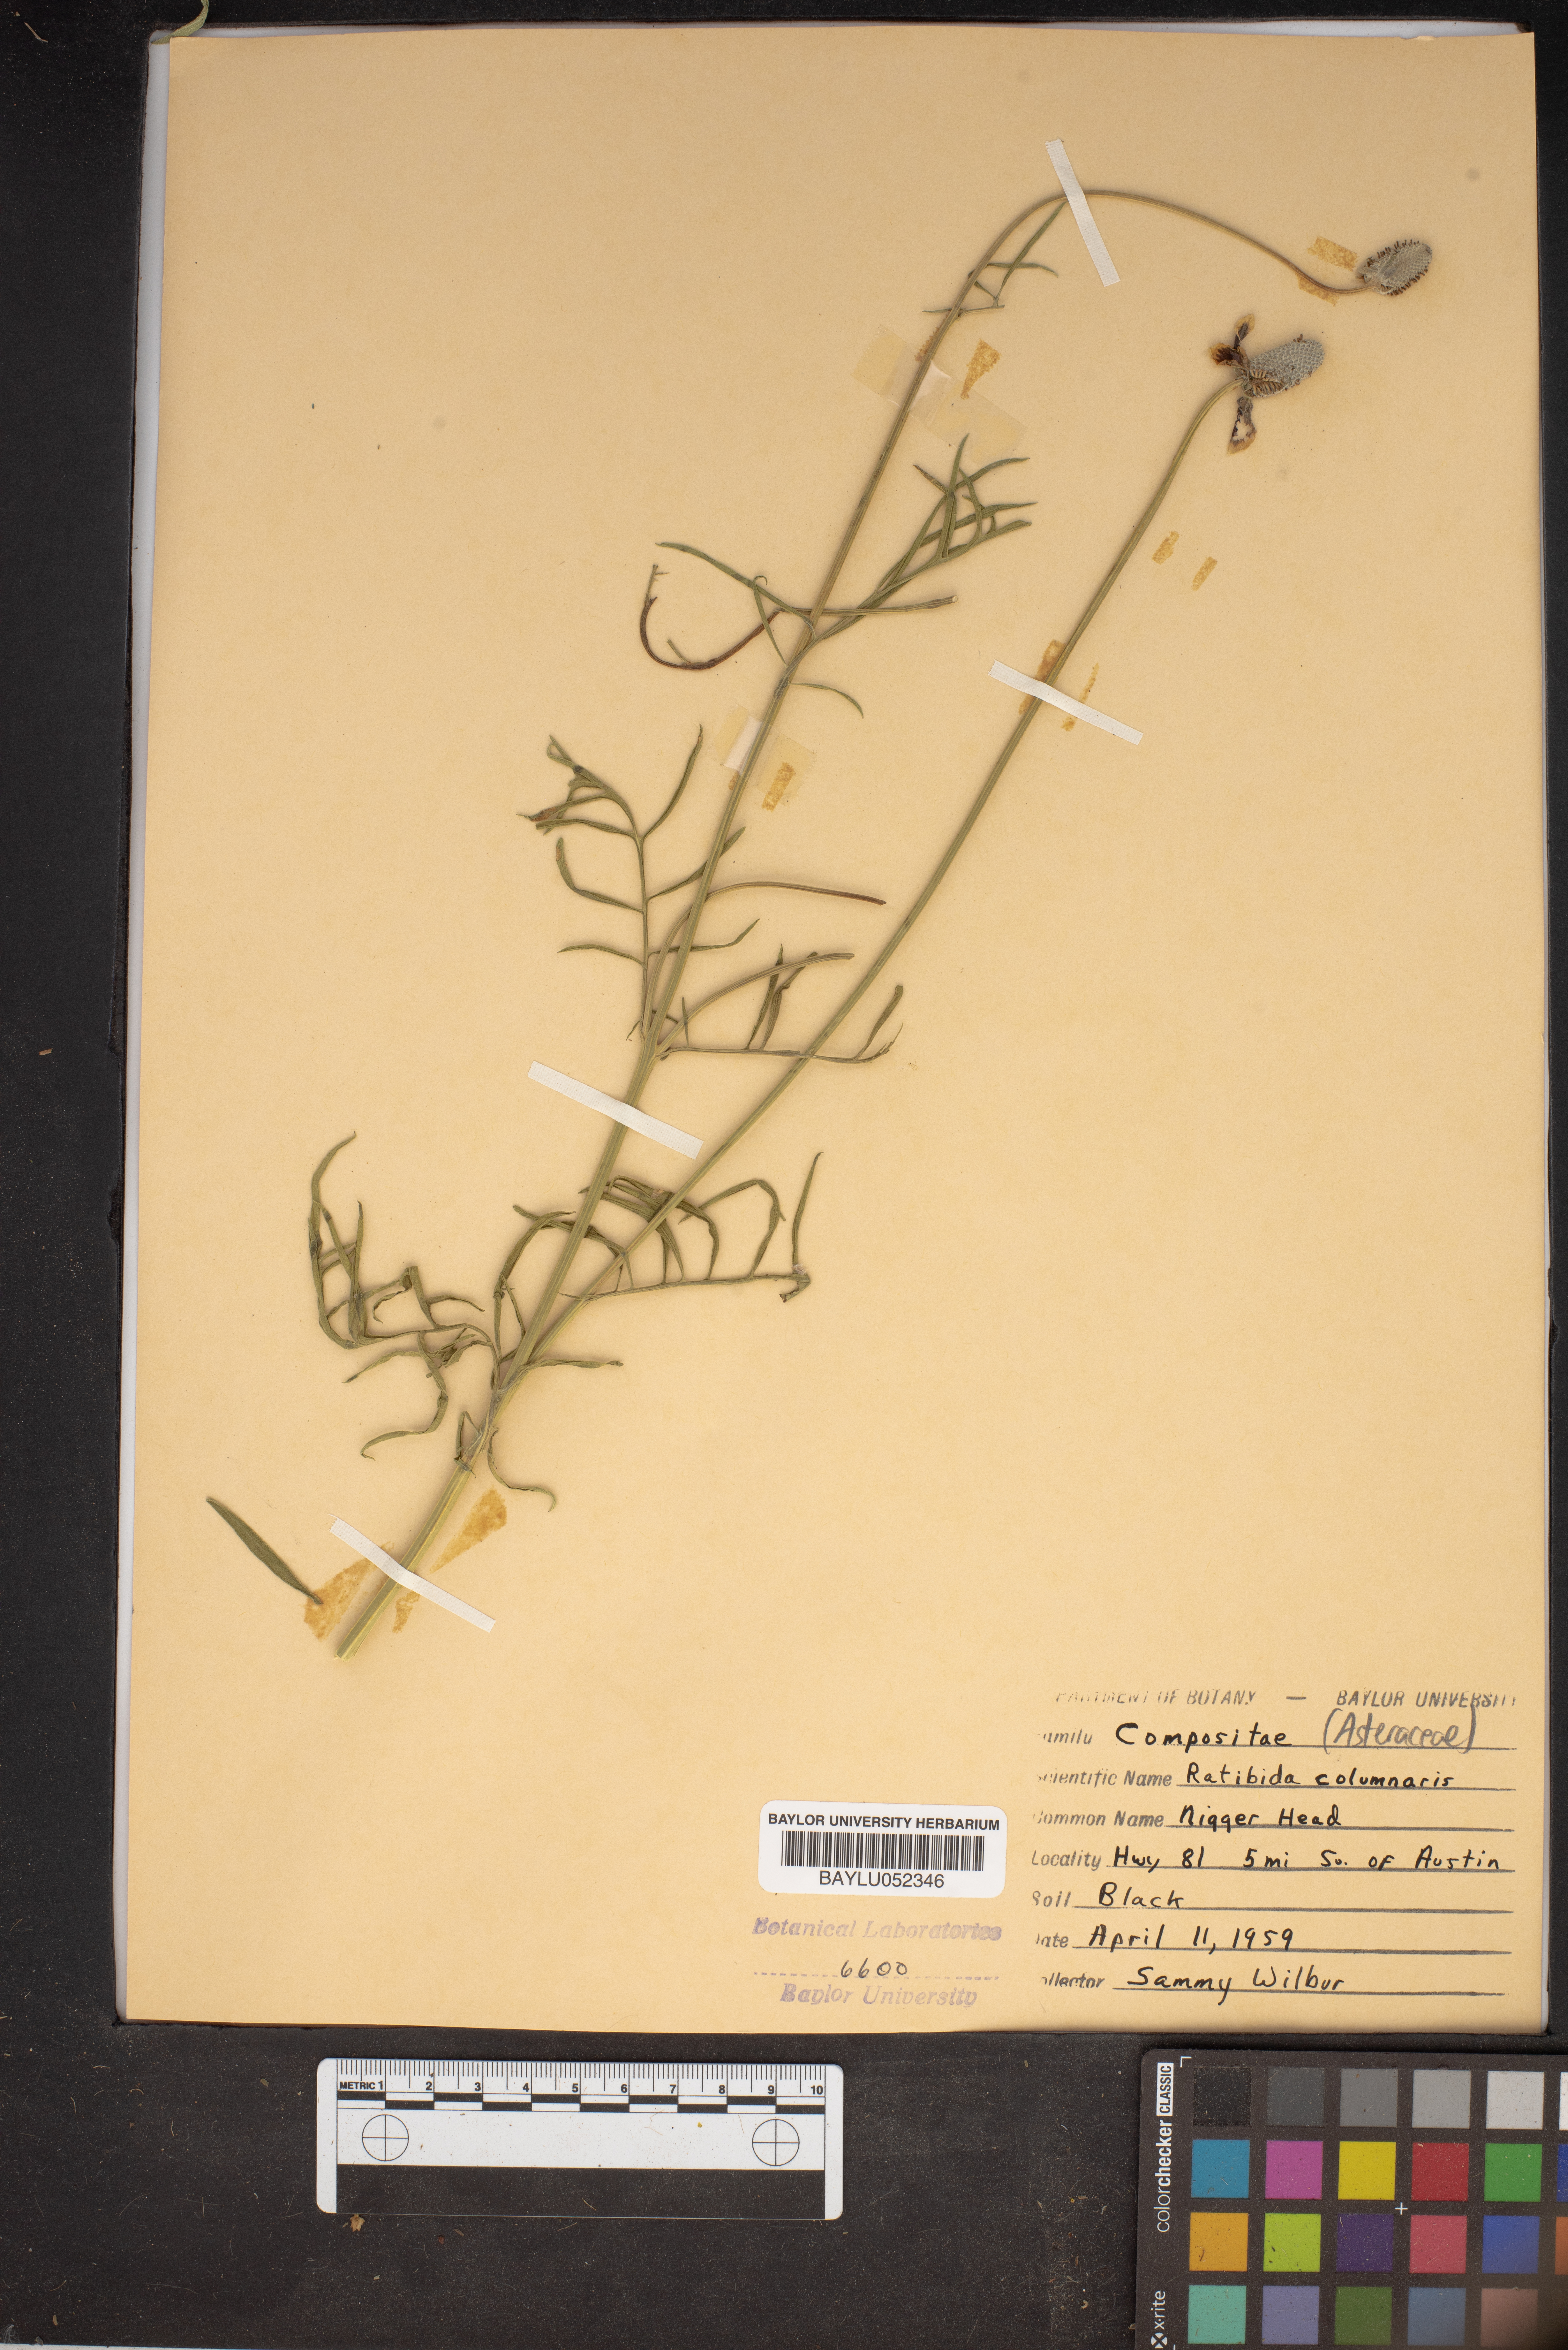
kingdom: Plantae
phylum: Tracheophyta
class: Magnoliopsida
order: Asterales
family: Asteraceae
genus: Ratibida
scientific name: Ratibida columnifera
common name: Prairie coneflower
